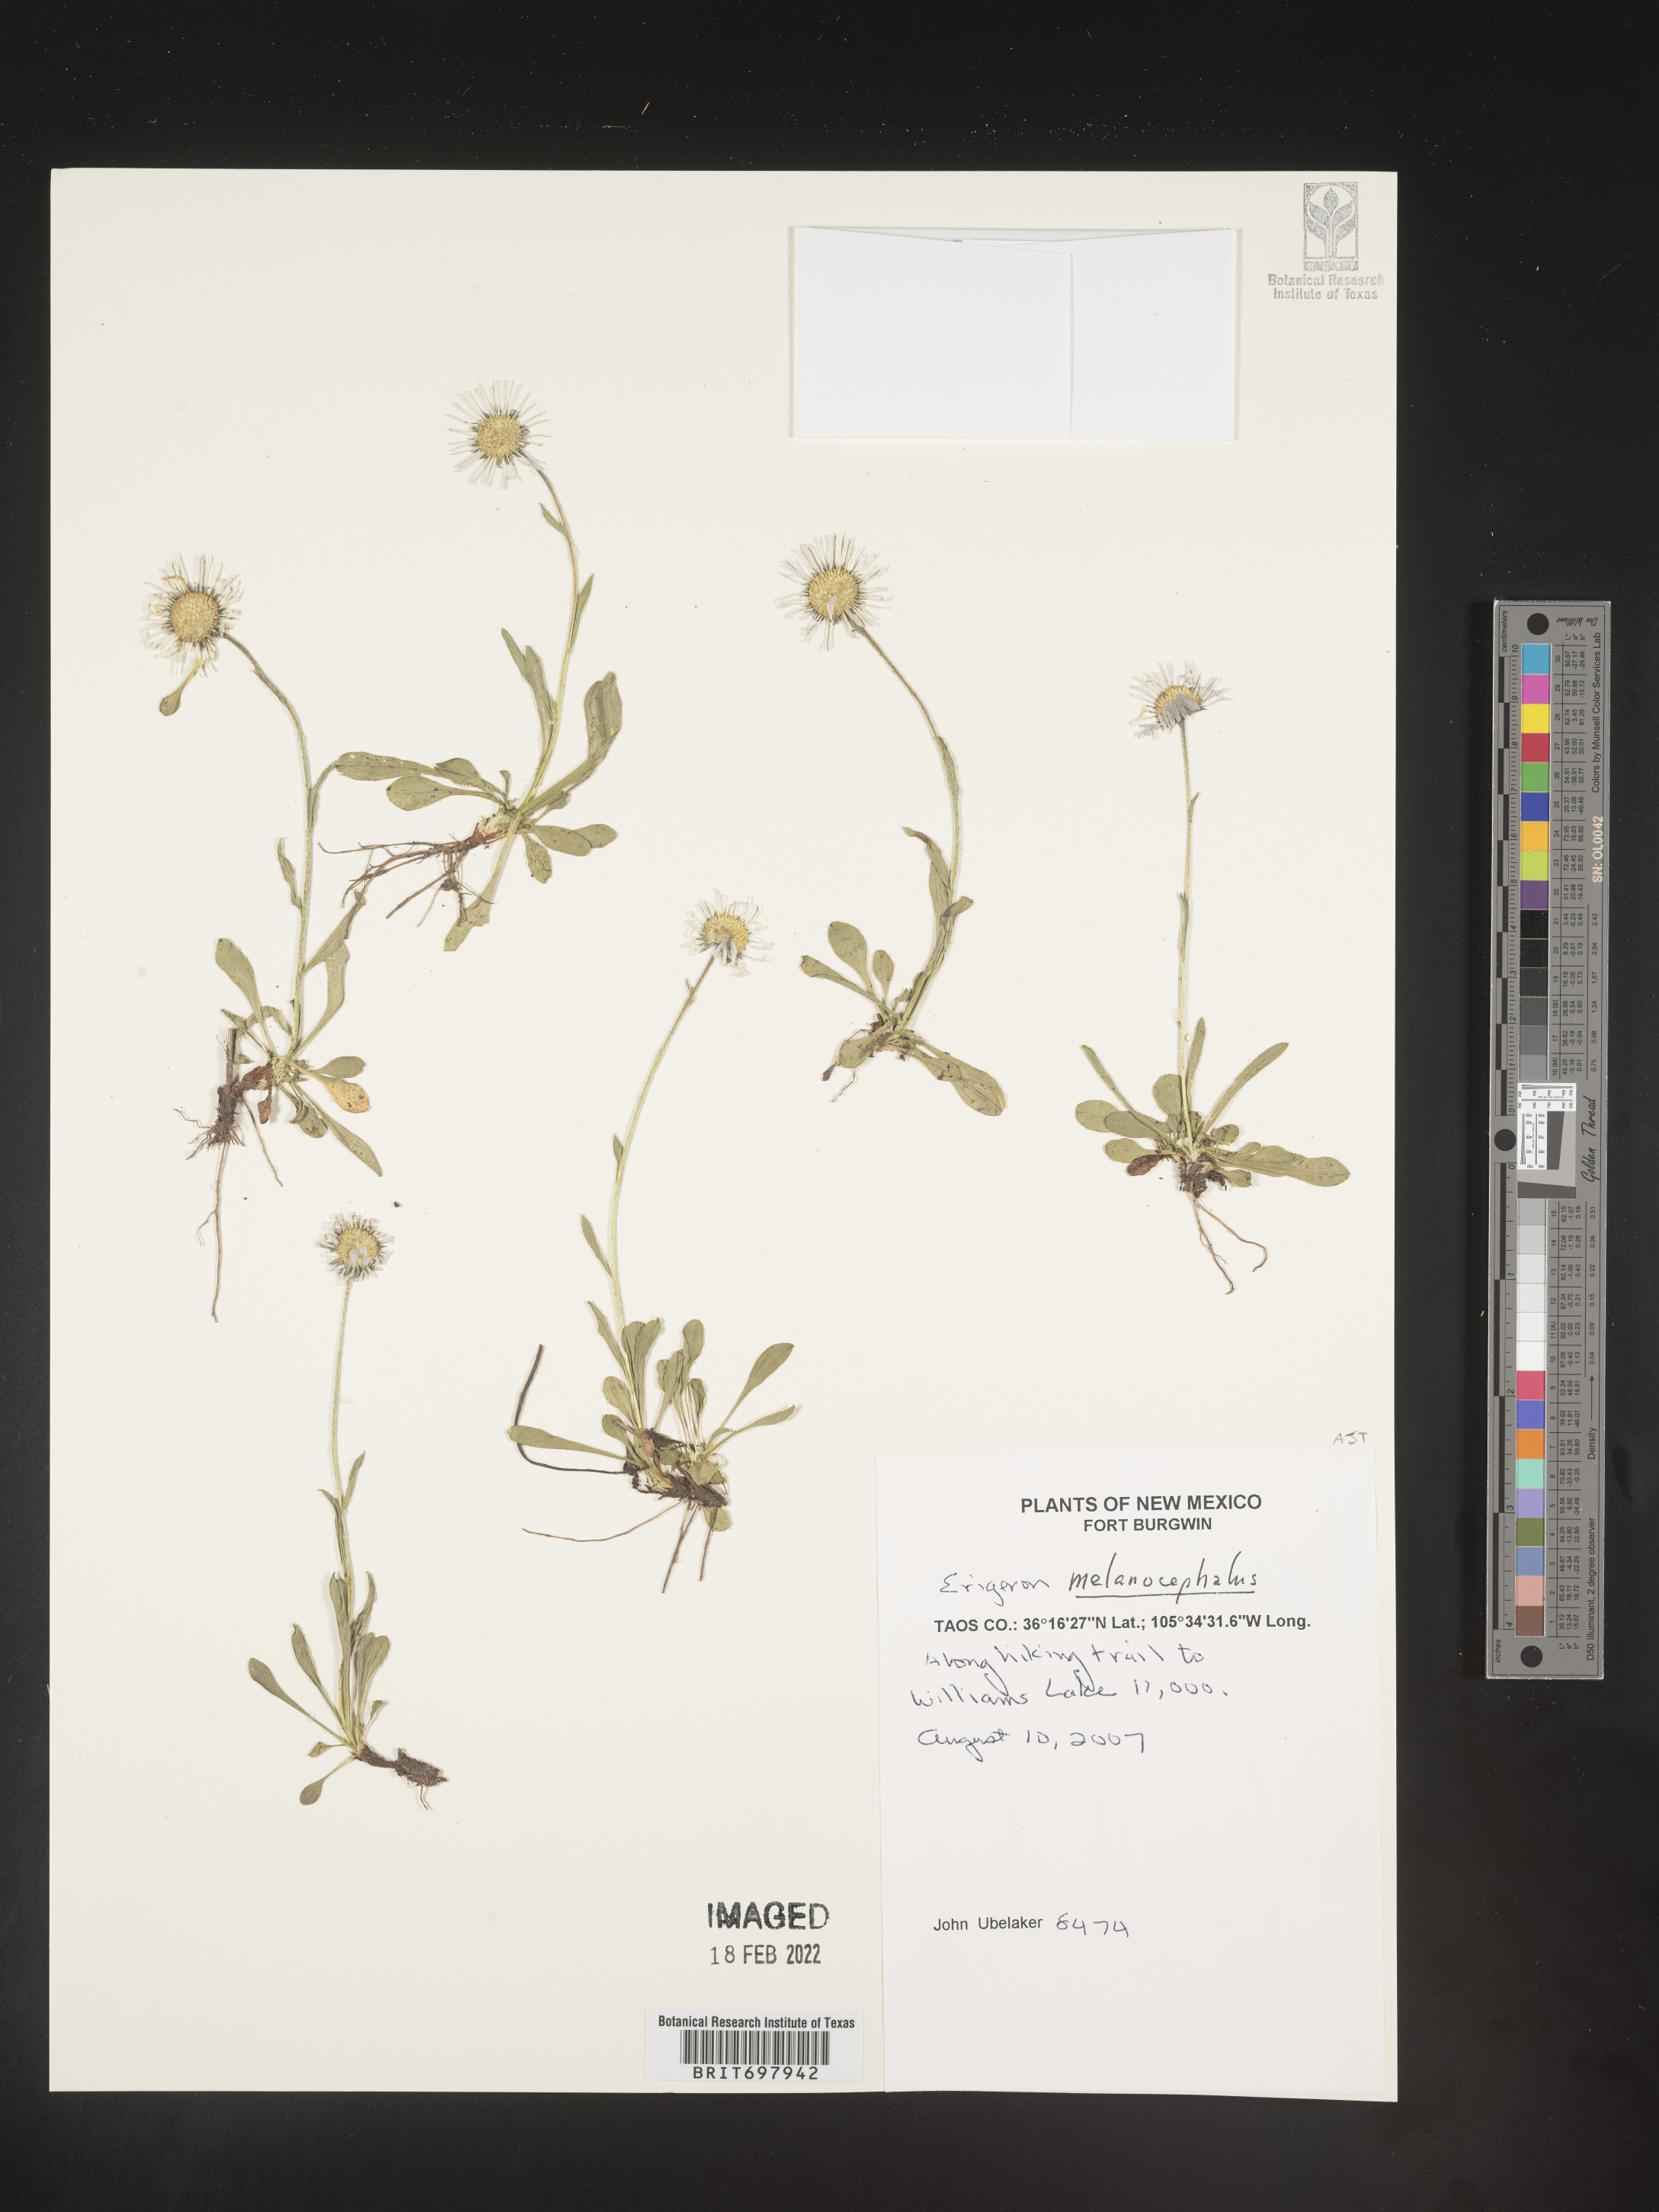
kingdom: Plantae
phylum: Tracheophyta
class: Magnoliopsida
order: Asterales
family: Asteraceae
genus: Erigeron
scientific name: Erigeron melanocephalus
